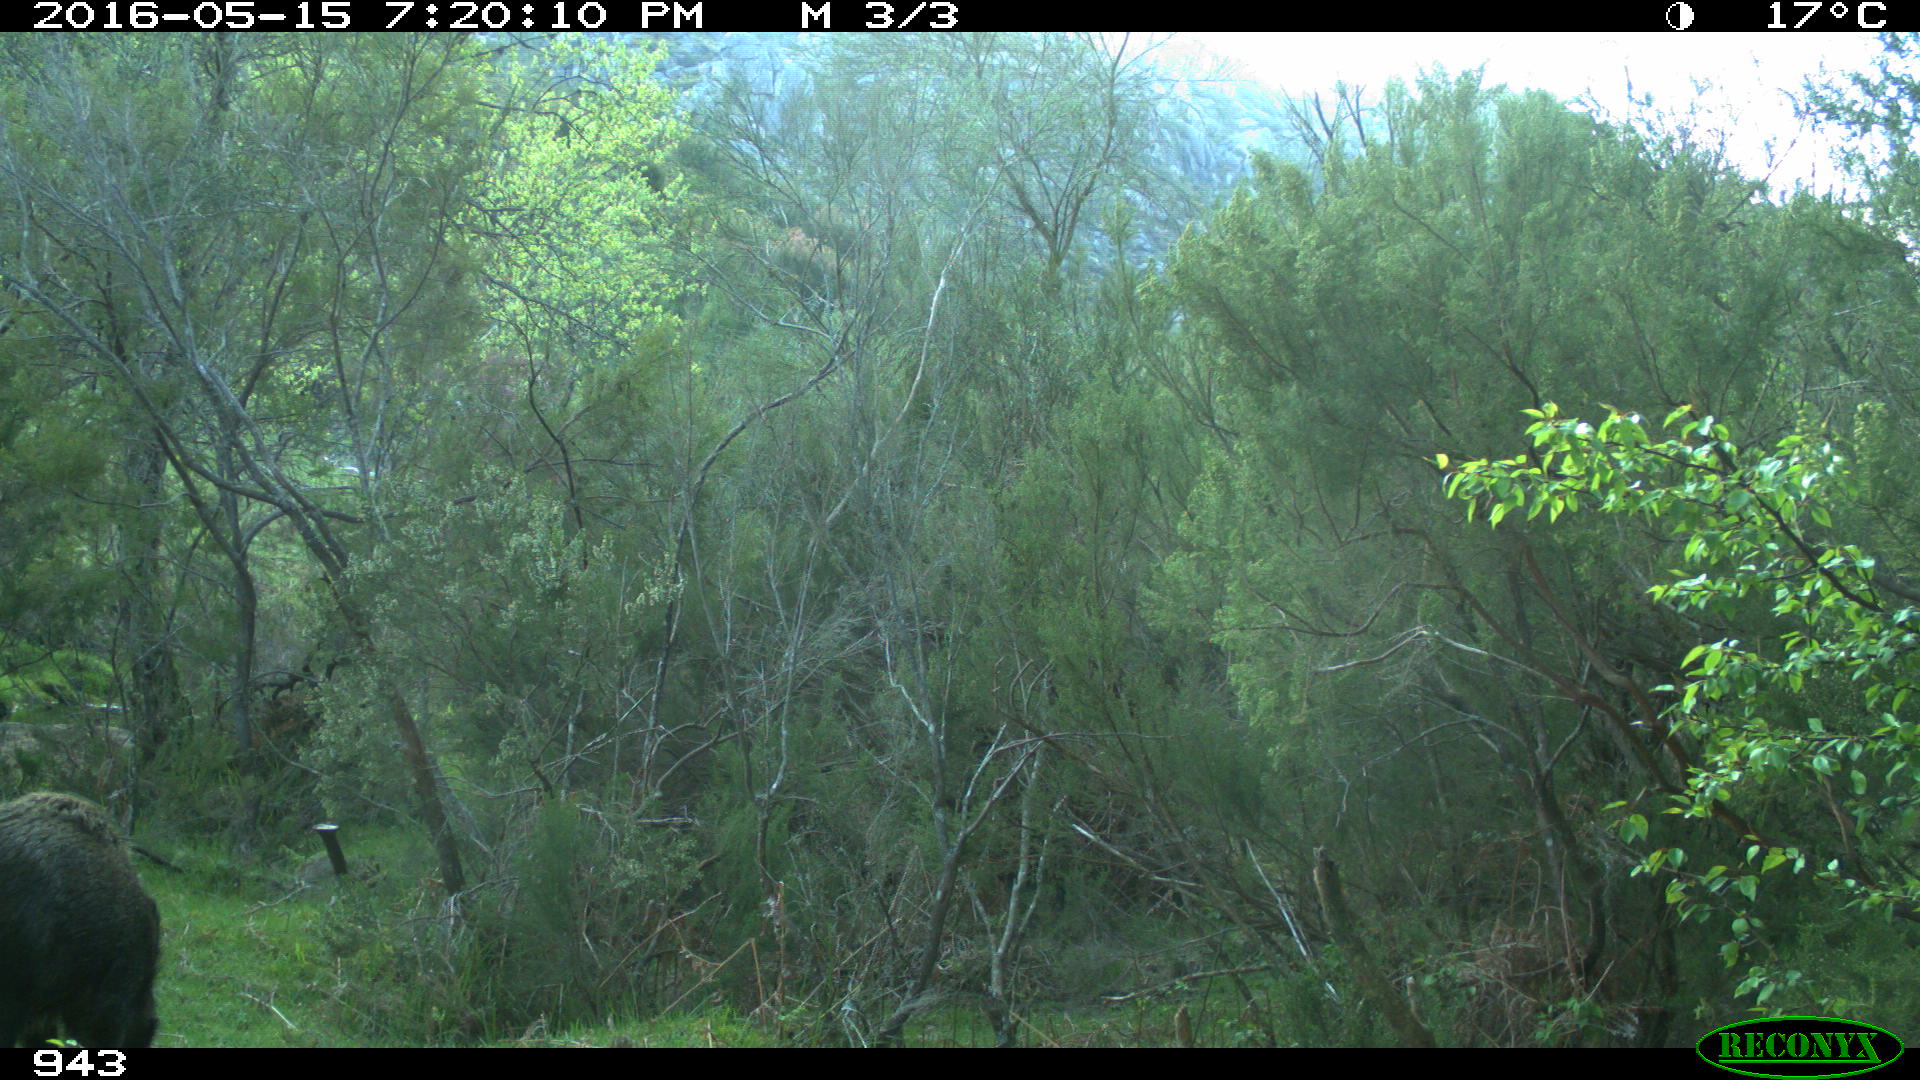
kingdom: Animalia
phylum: Chordata
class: Mammalia
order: Artiodactyla
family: Suidae
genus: Sus
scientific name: Sus scrofa
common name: Wild boar
